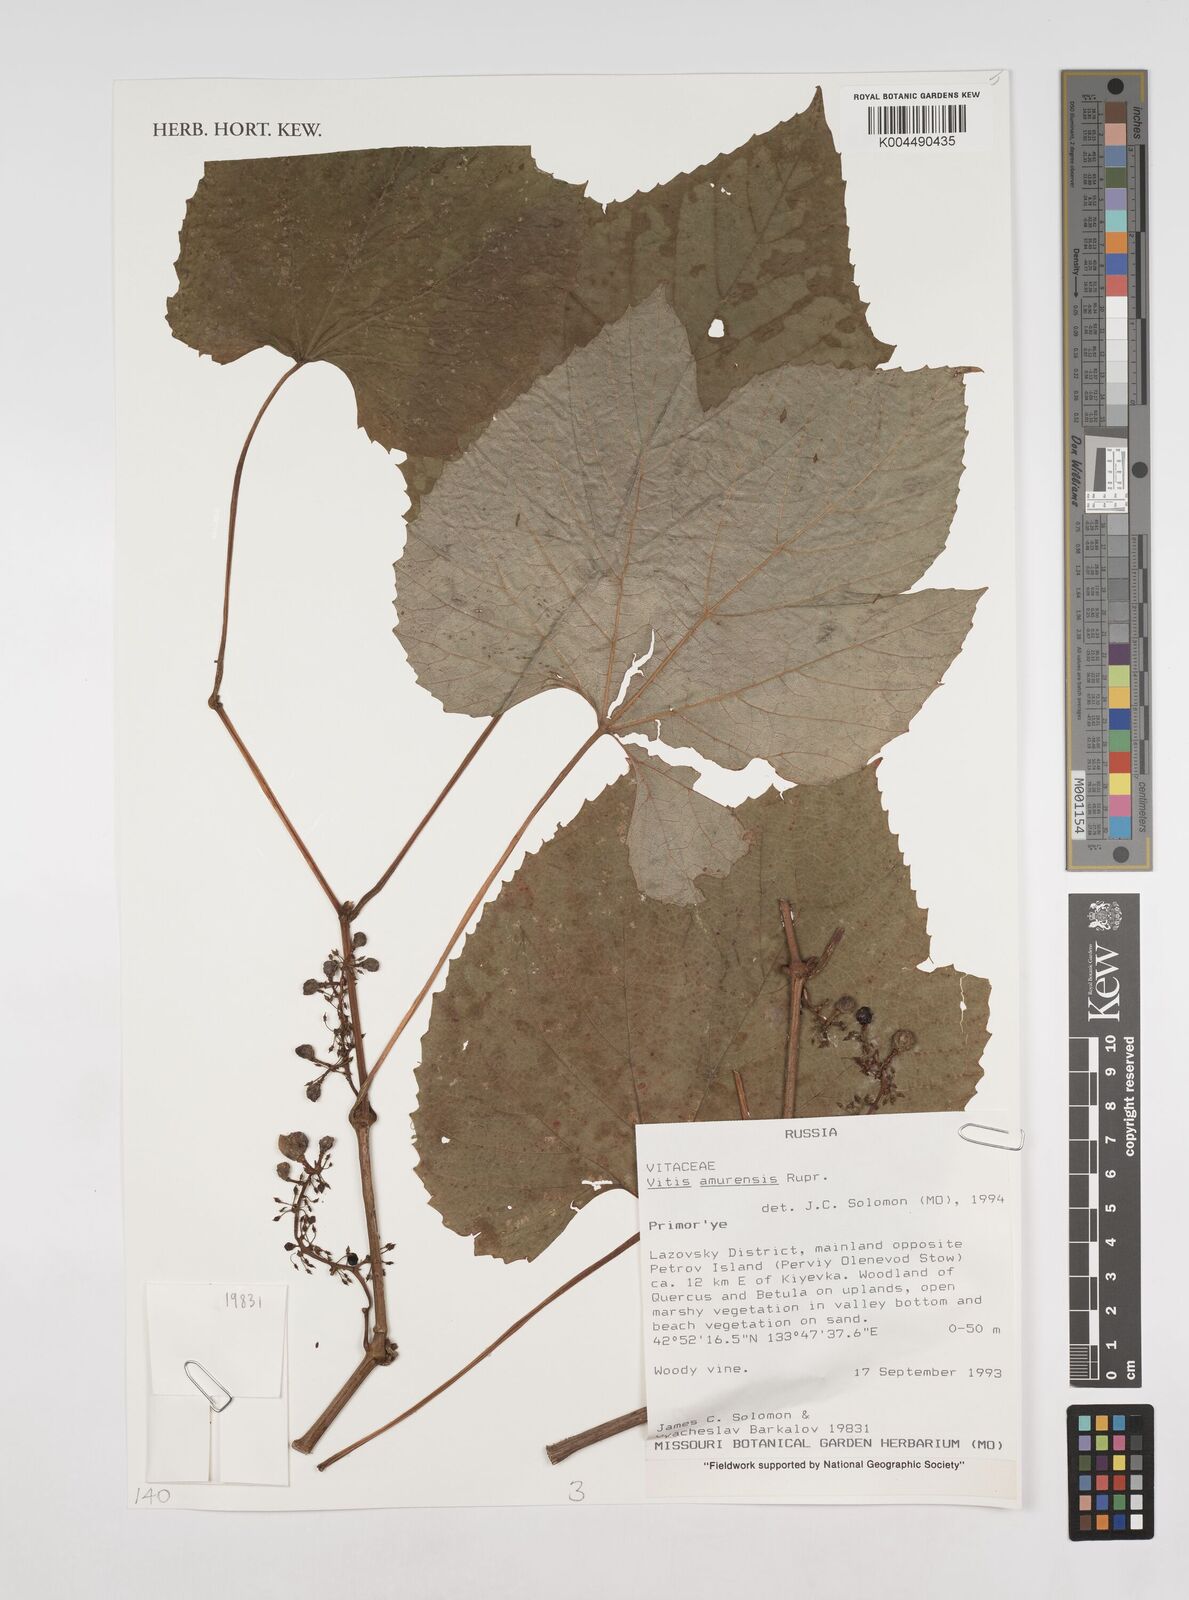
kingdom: Plantae
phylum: Tracheophyta
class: Magnoliopsida
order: Vitales
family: Vitaceae
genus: Vitis
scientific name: Vitis vinifera
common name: Grape-vine
